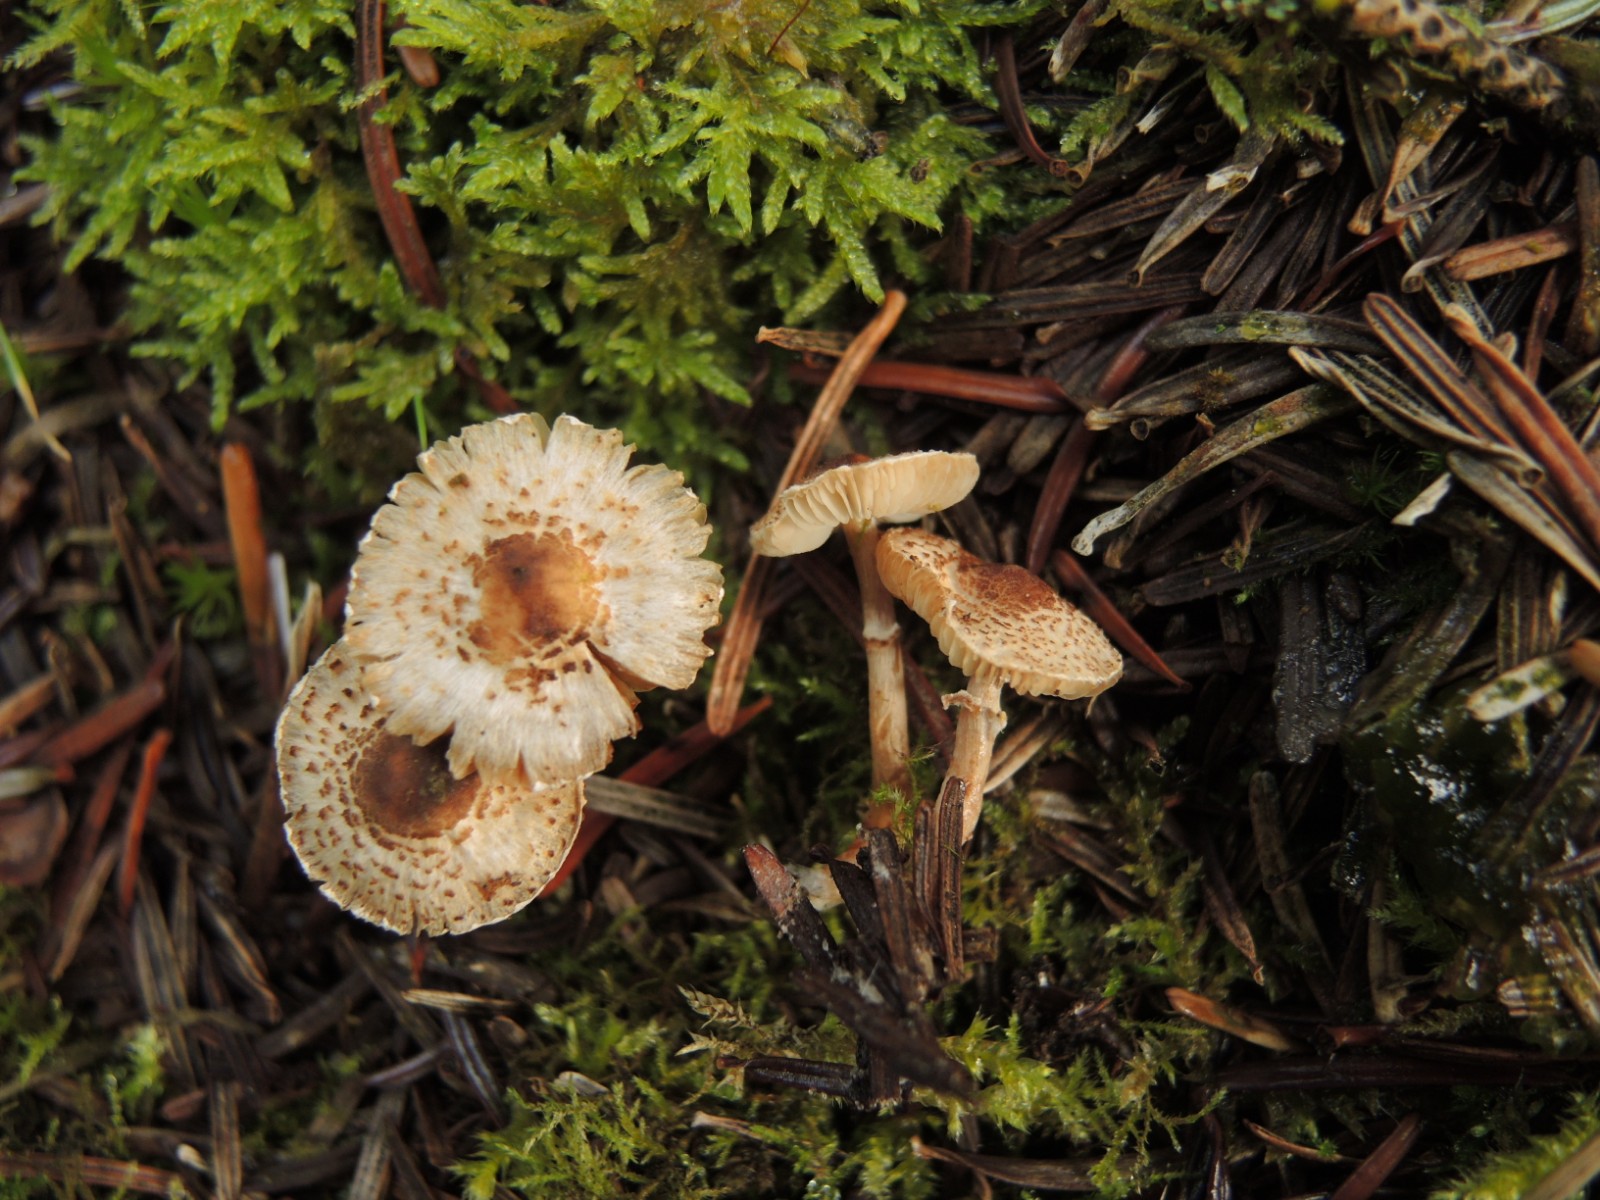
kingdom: Fungi
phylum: Basidiomycota
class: Agaricomycetes
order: Agaricales
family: Agaricaceae
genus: Lepiota
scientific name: Lepiota felina
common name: sortskællet parasolhat
